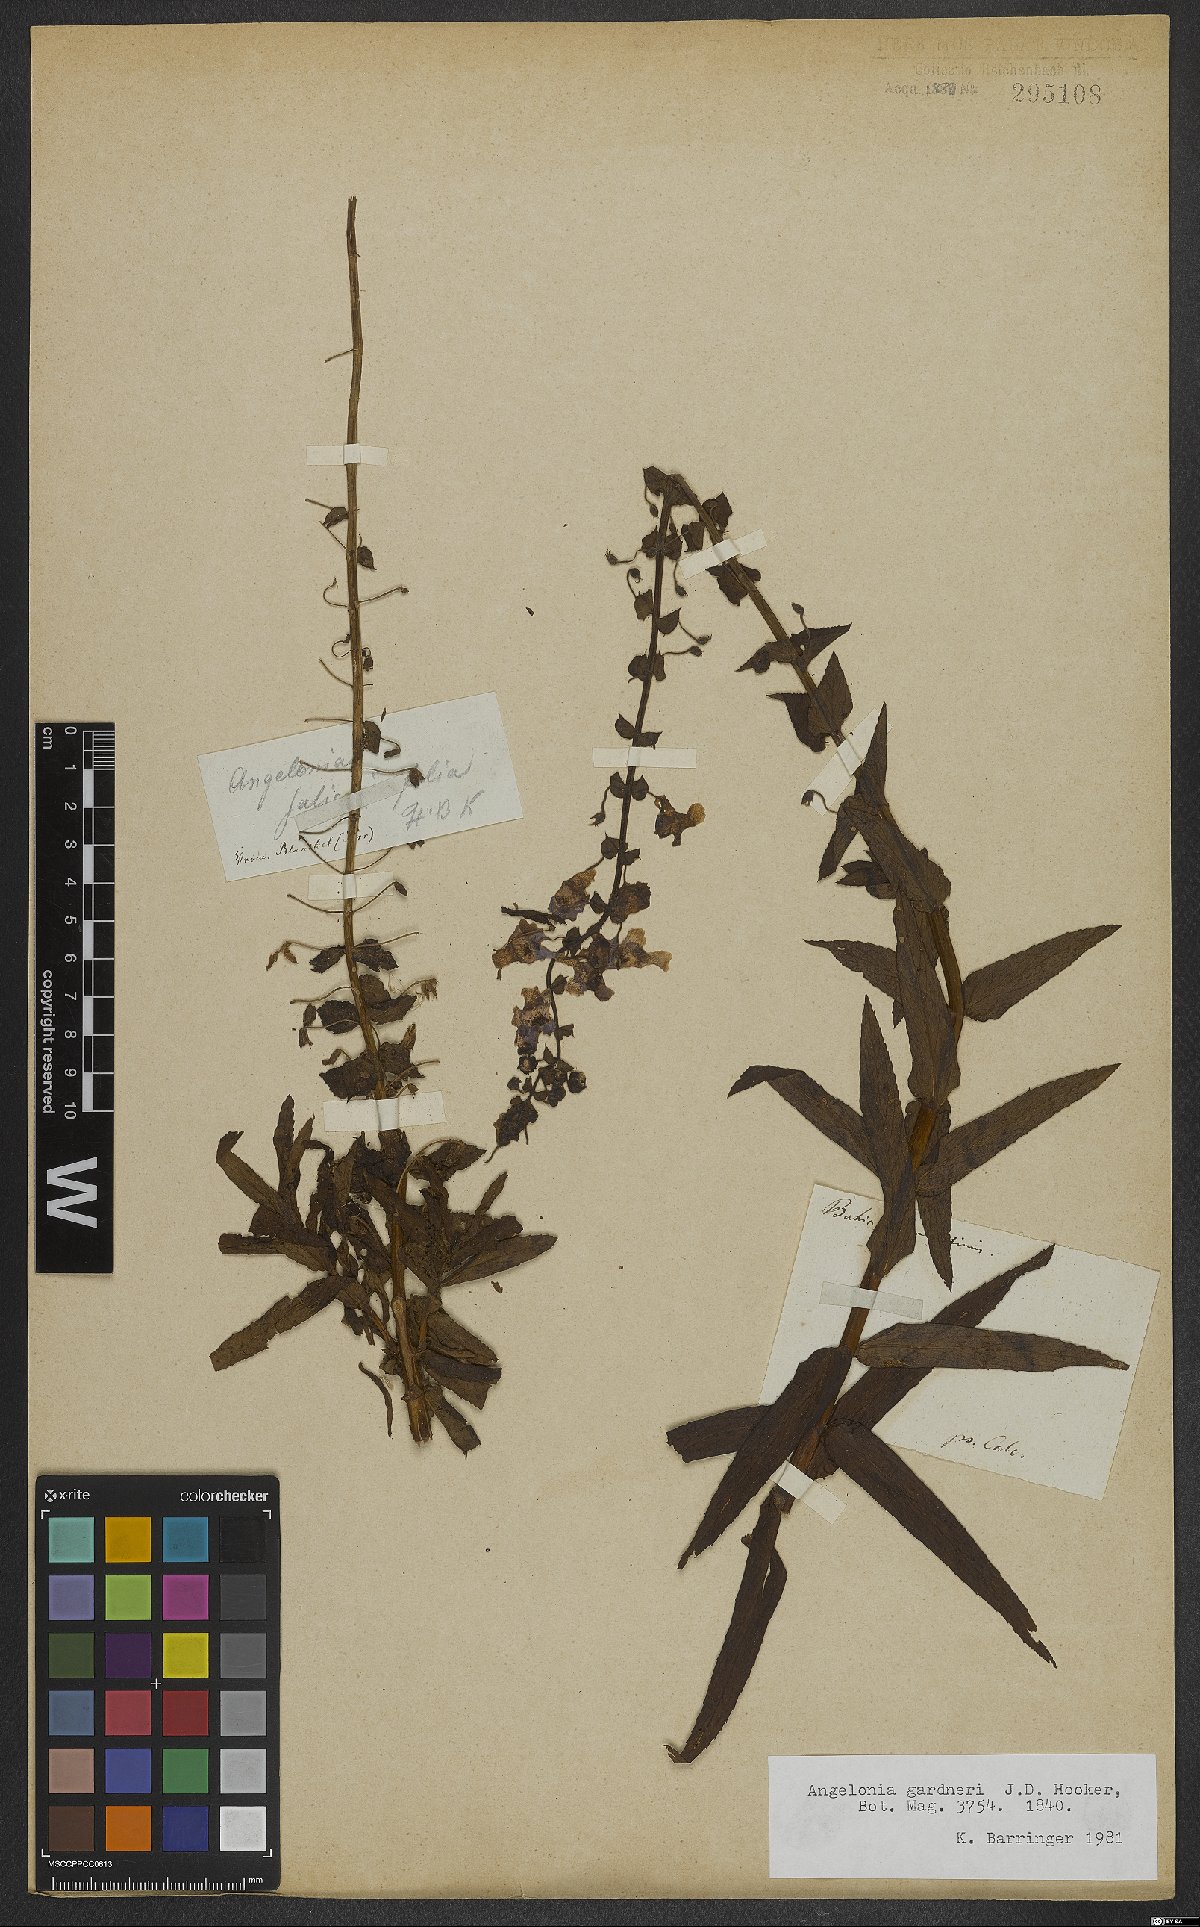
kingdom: Plantae
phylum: Tracheophyta
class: Magnoliopsida
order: Lamiales
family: Plantaginaceae
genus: Angelonia
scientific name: Angelonia gardneri
